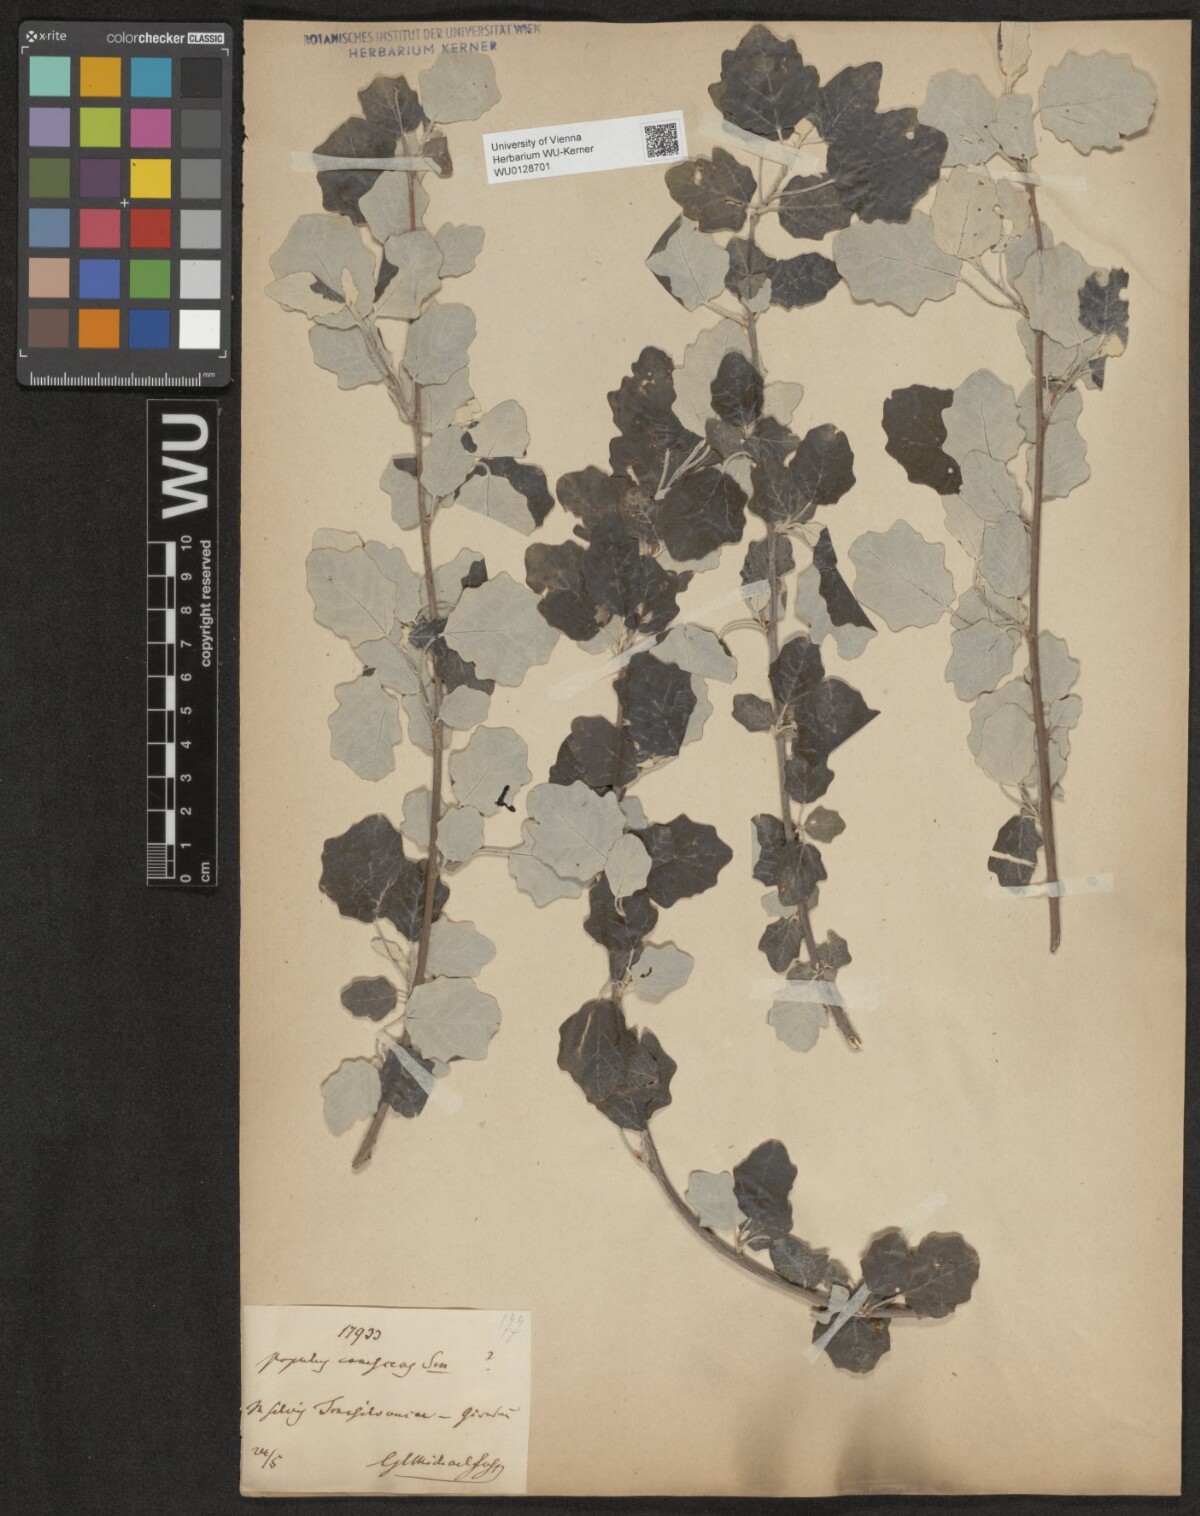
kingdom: Plantae
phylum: Tracheophyta
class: Magnoliopsida
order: Malpighiales
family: Salicaceae
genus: Populus
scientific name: Populus
